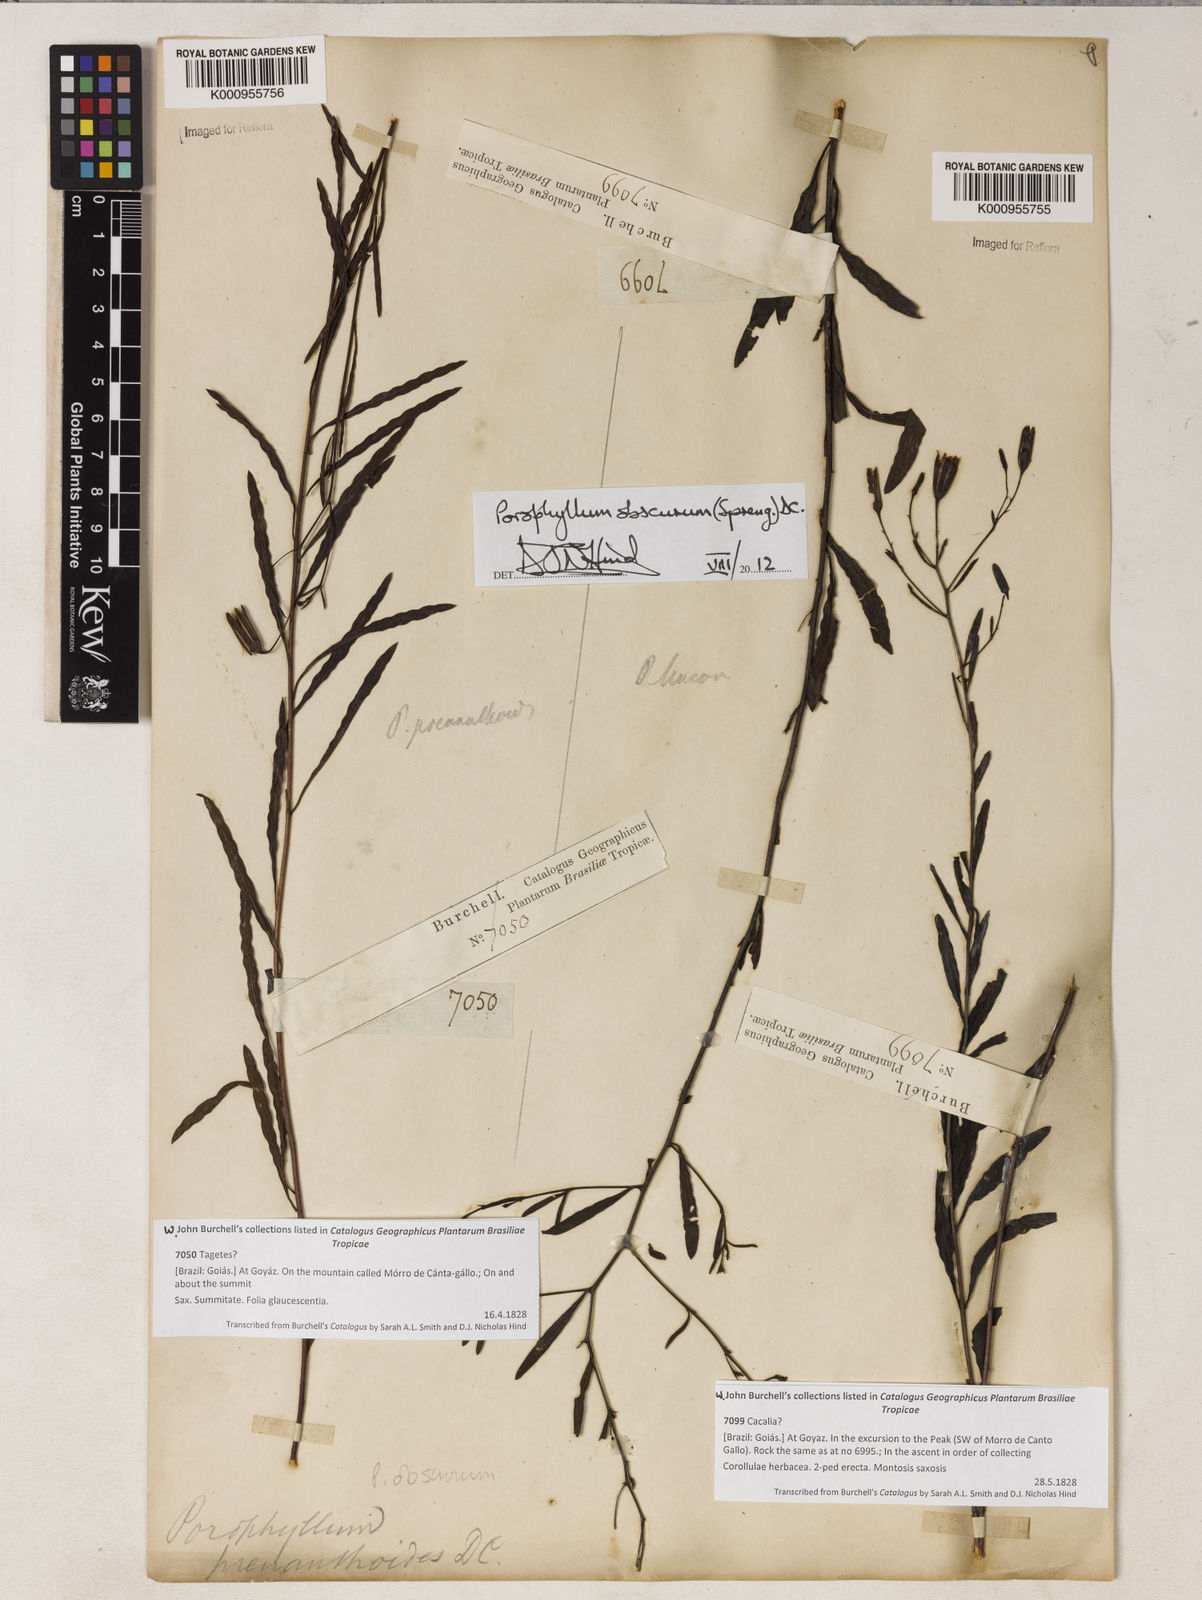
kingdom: Plantae
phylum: Tracheophyta
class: Magnoliopsida
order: Asterales
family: Asteraceae
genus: Porophyllum
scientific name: Porophyllum obscurum
